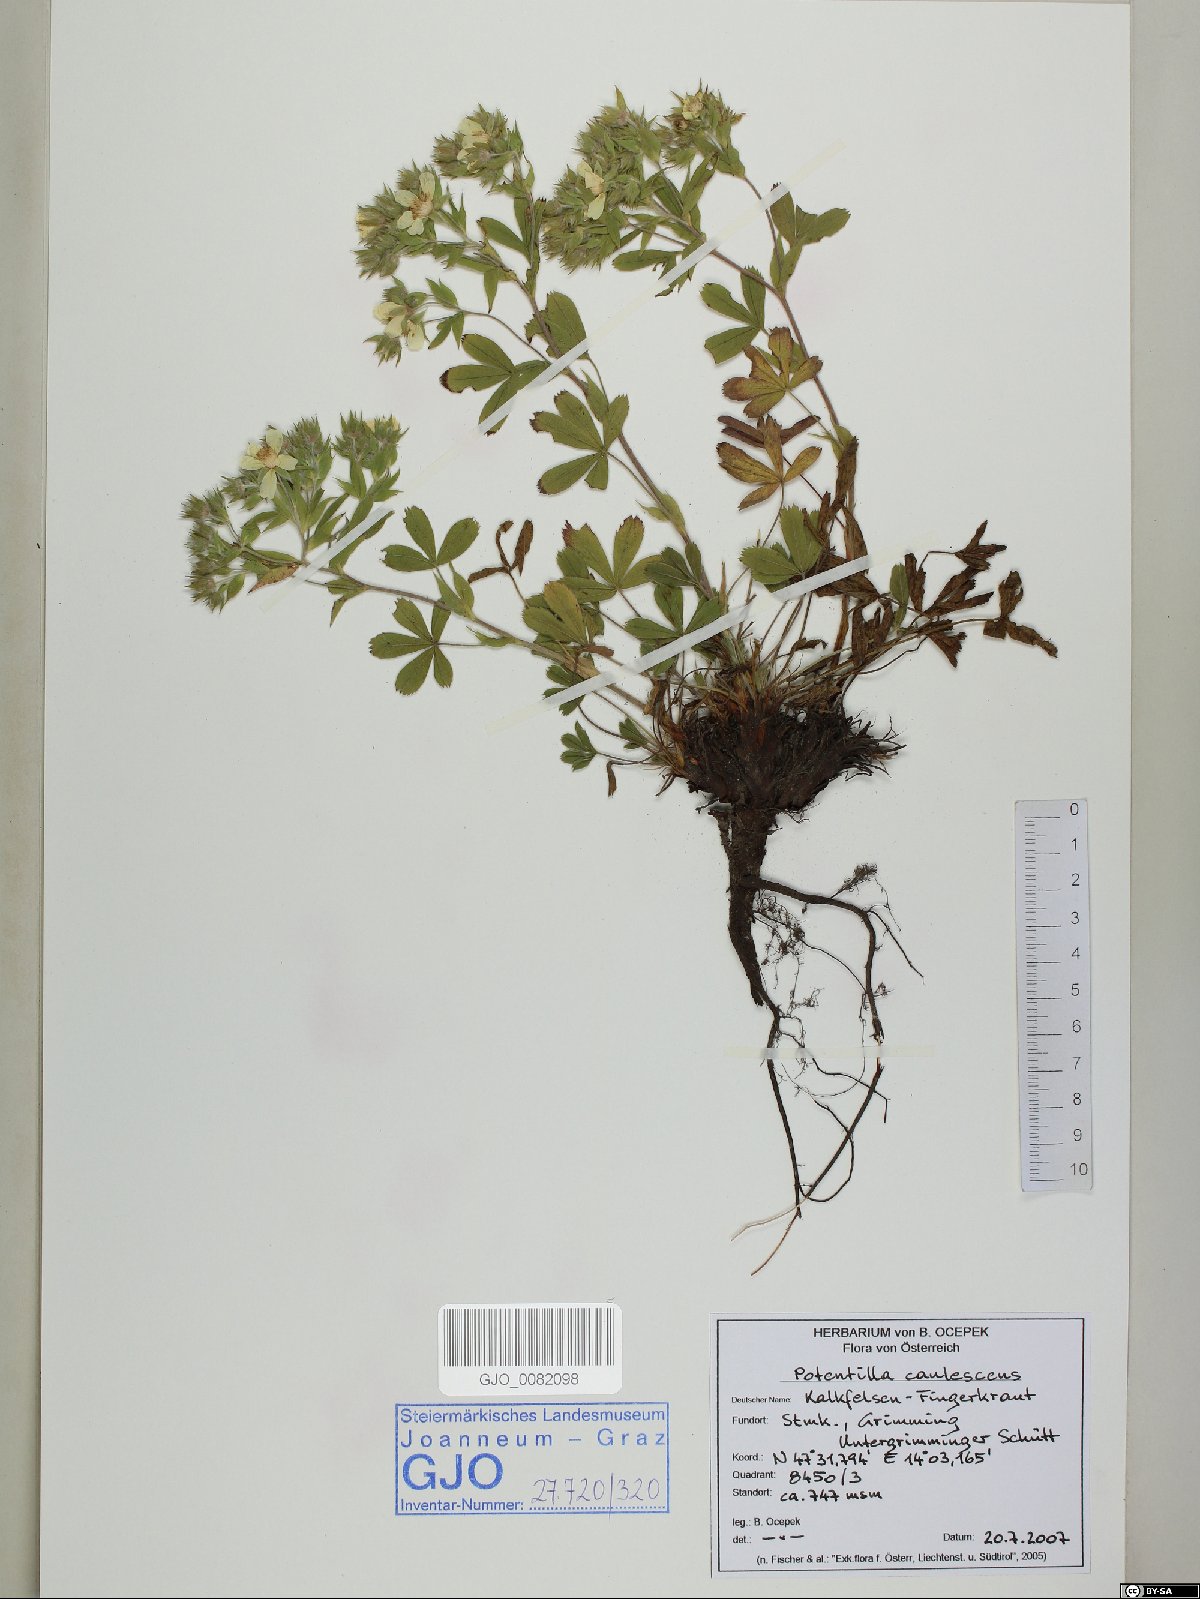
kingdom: Plantae
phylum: Tracheophyta
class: Magnoliopsida
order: Rosales
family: Rosaceae
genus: Potentilla
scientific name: Potentilla caulescens
